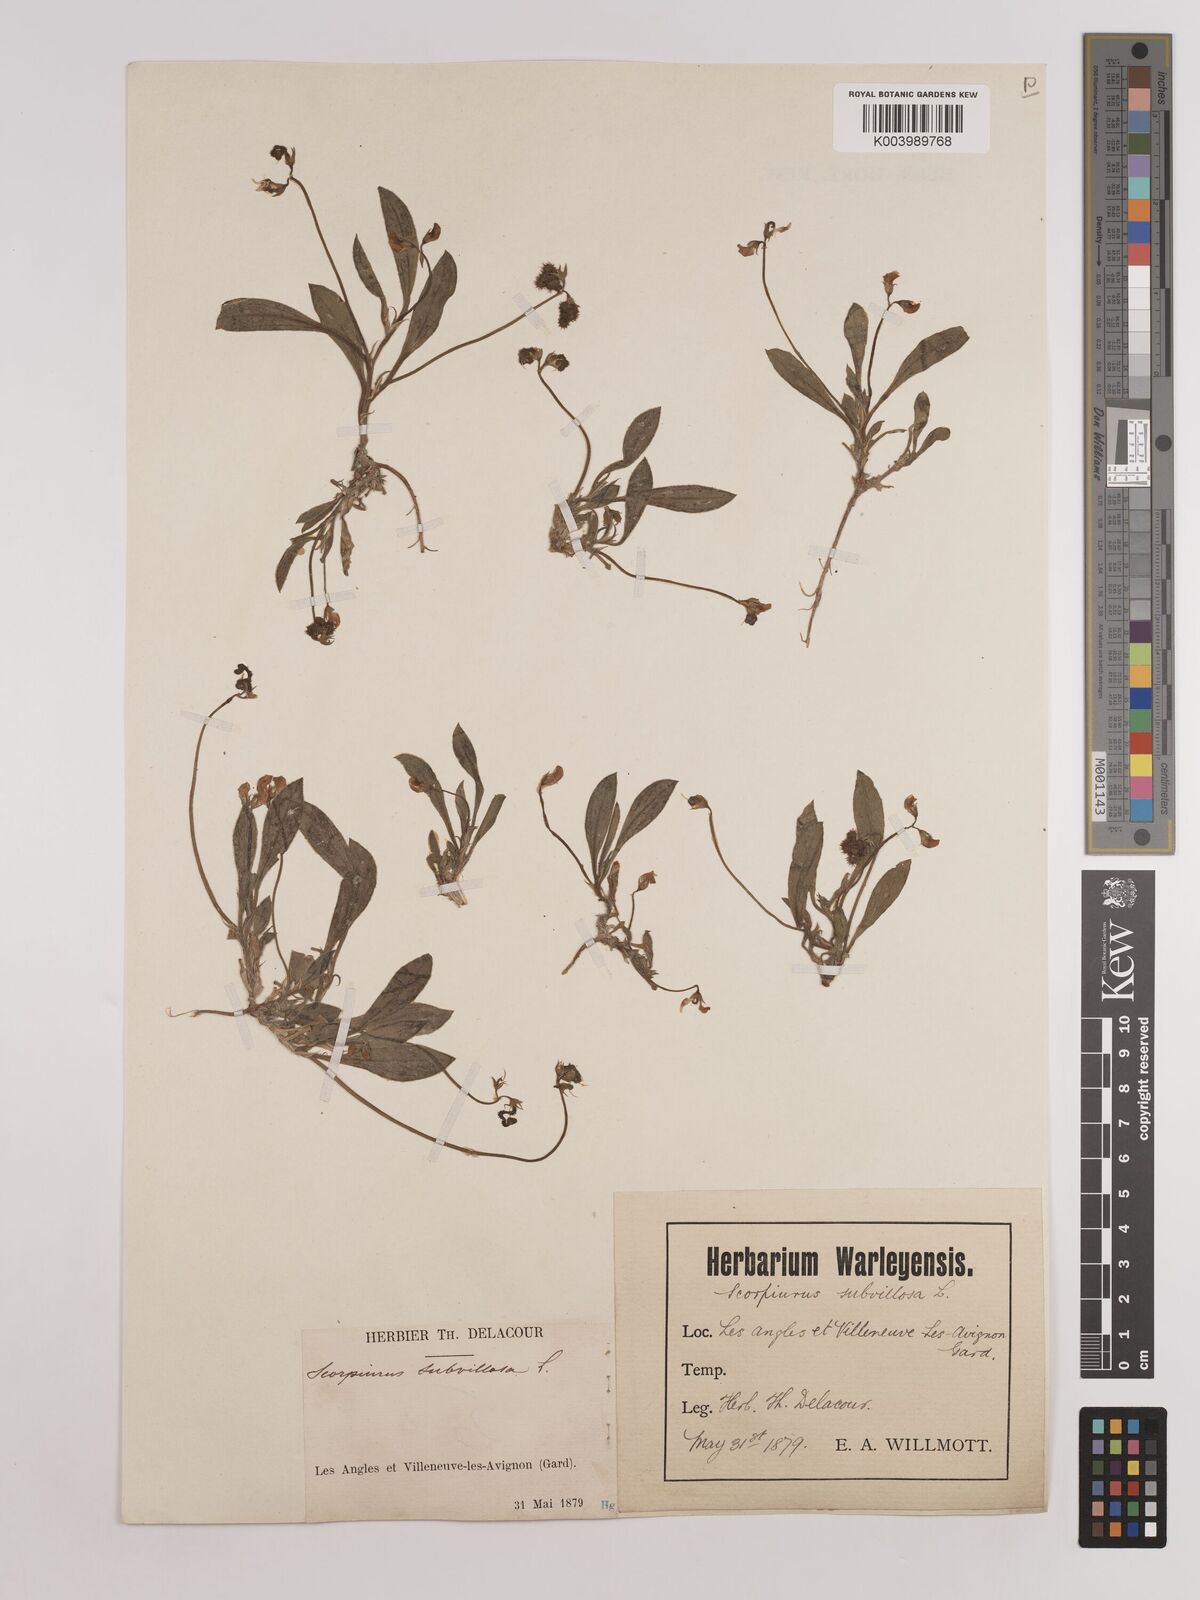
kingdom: Plantae
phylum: Tracheophyta
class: Magnoliopsida
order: Fabales
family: Fabaceae
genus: Scorpiurus
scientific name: Scorpiurus muricatus
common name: Caterpillar-plant
